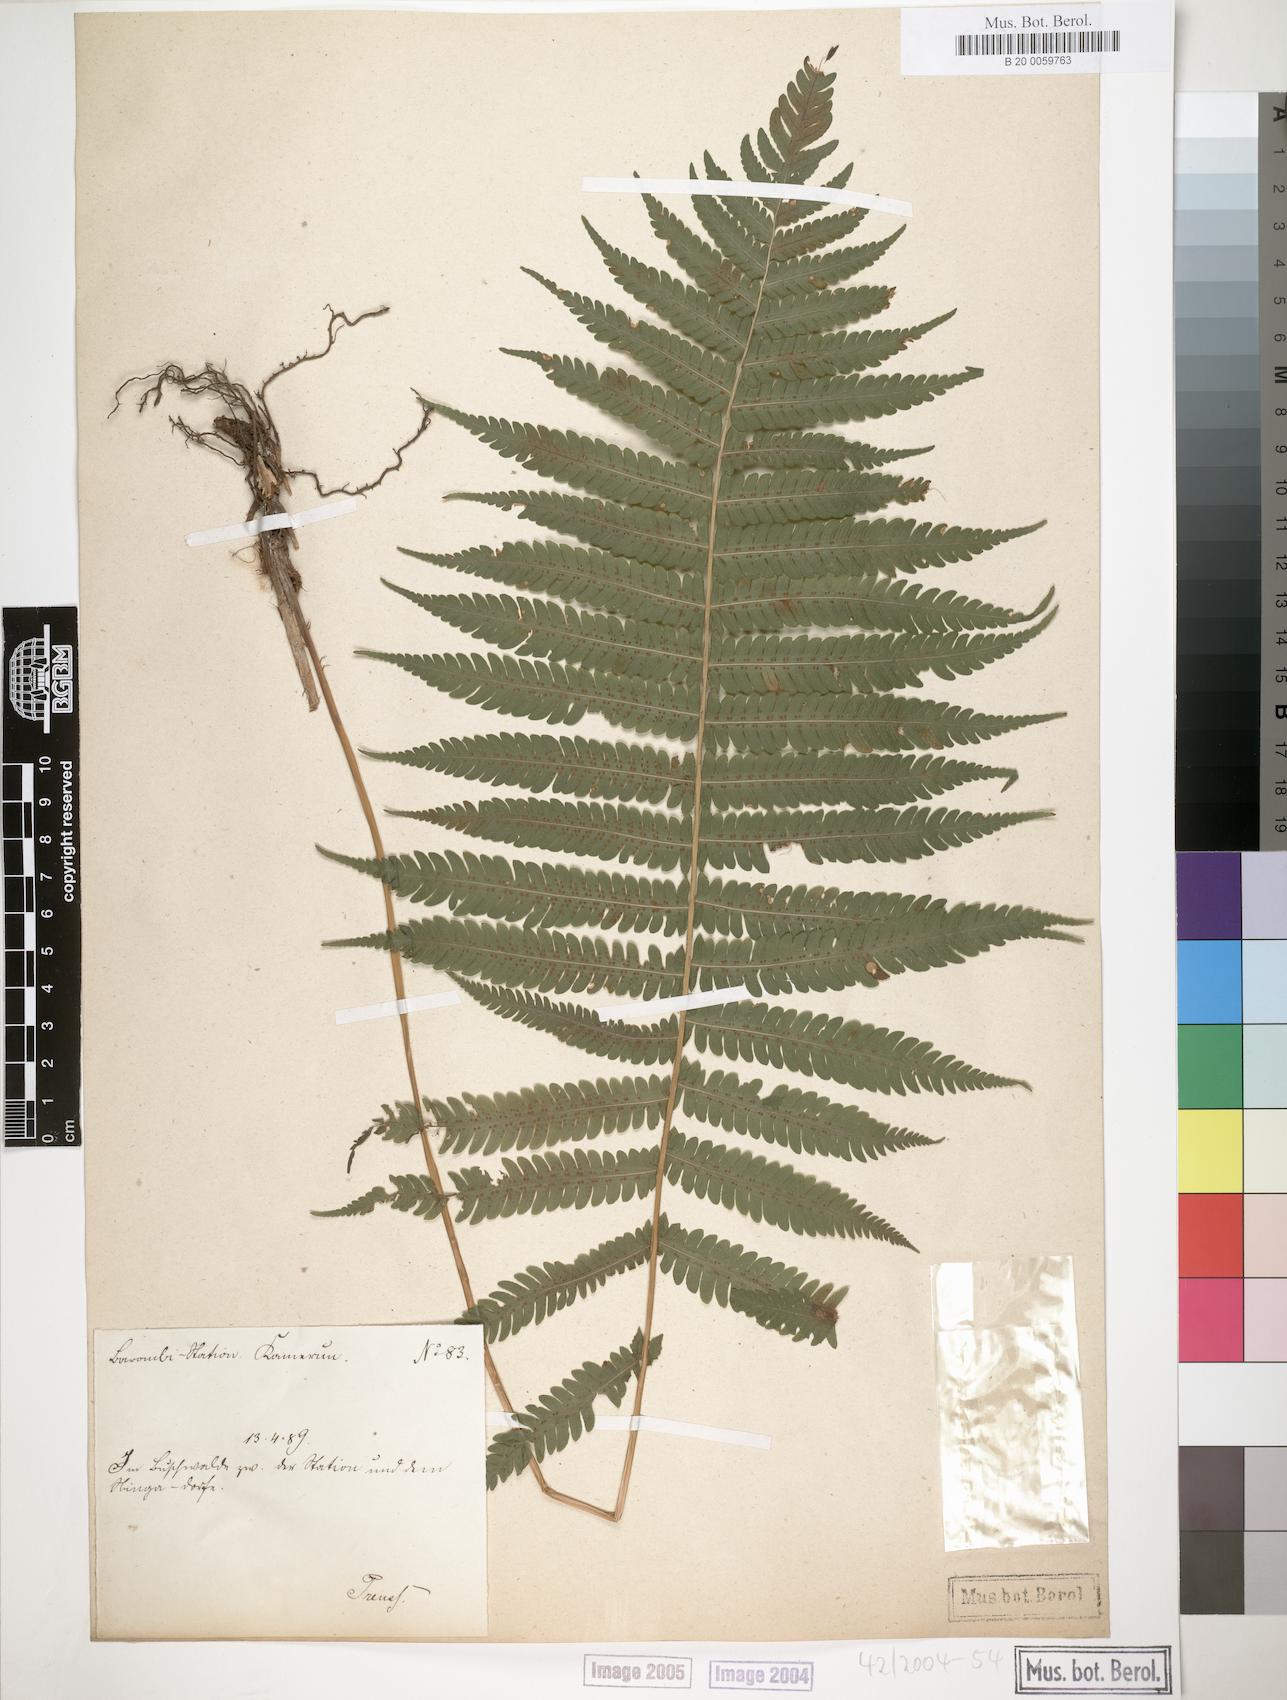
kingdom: Plantae
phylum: Tracheophyta
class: Polypodiopsida
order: Polypodiales
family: Thelypteridaceae
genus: Christella
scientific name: Christella dentata
